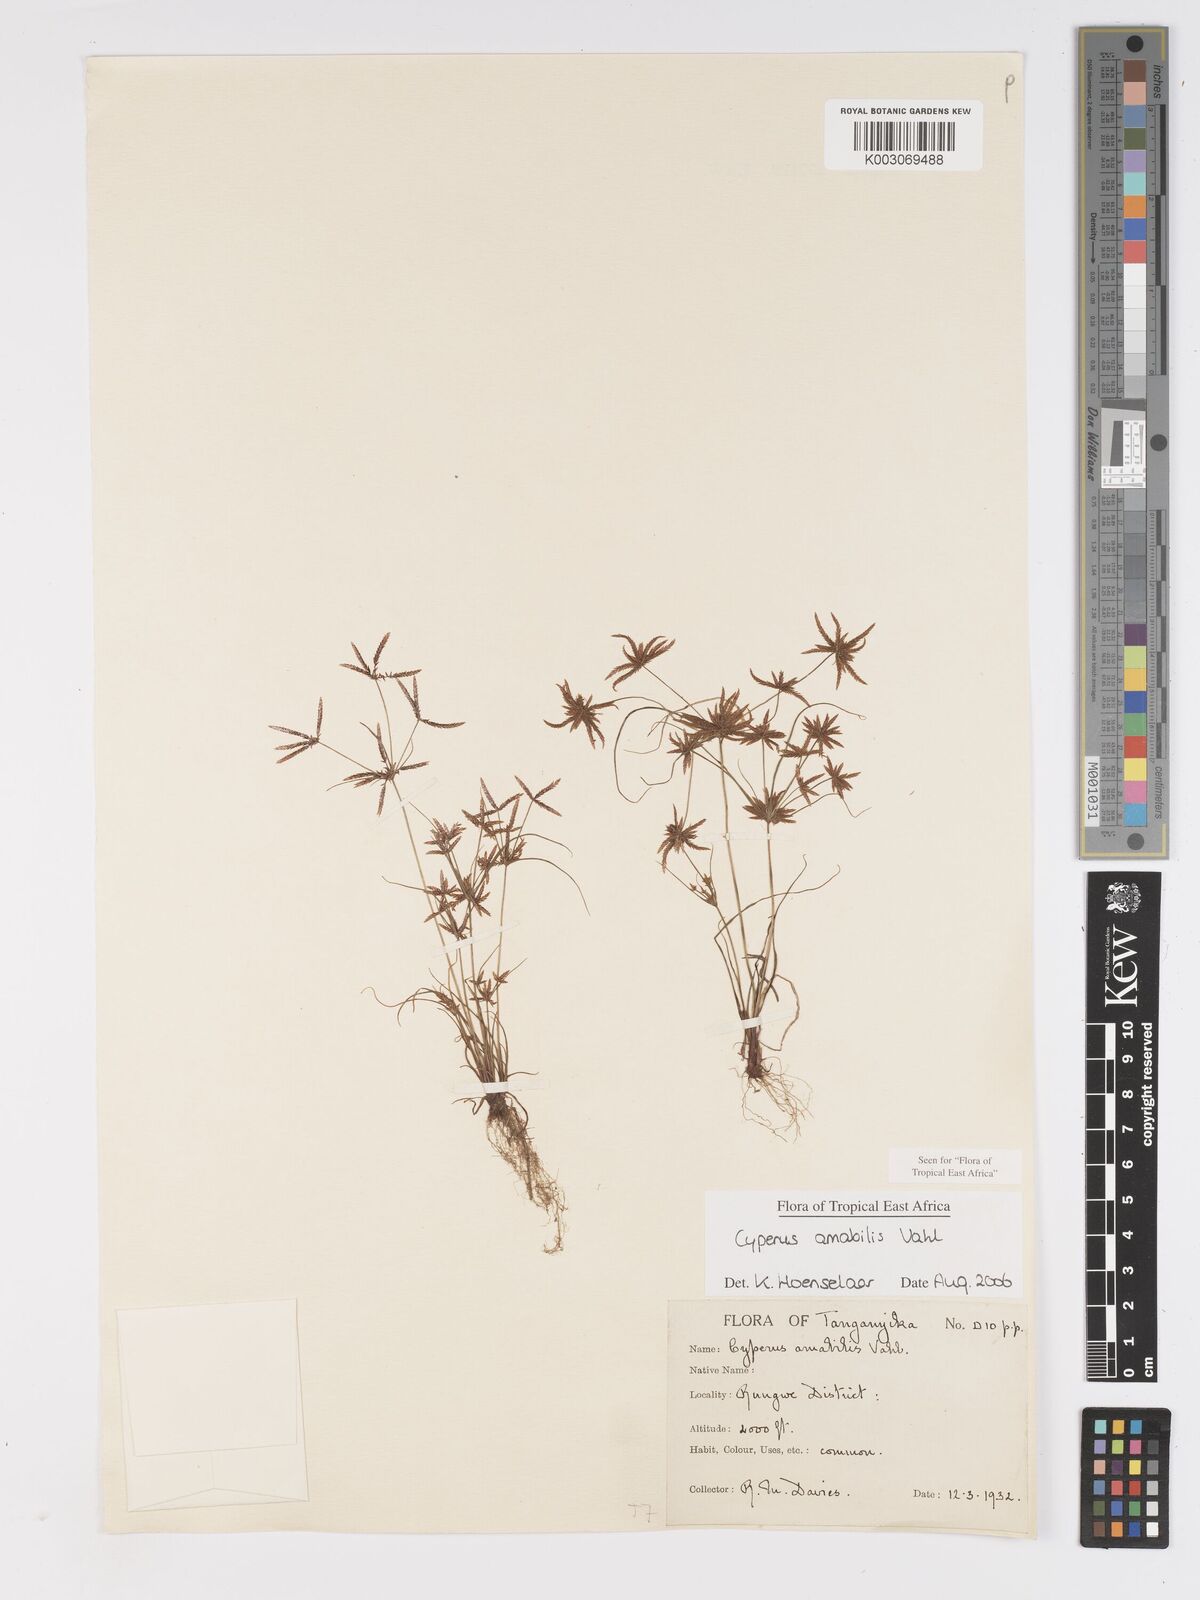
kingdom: Plantae
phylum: Tracheophyta
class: Liliopsida
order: Poales
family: Cyperaceae
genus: Cyperus
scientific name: Cyperus amabilis
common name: Foothill flat sedge
